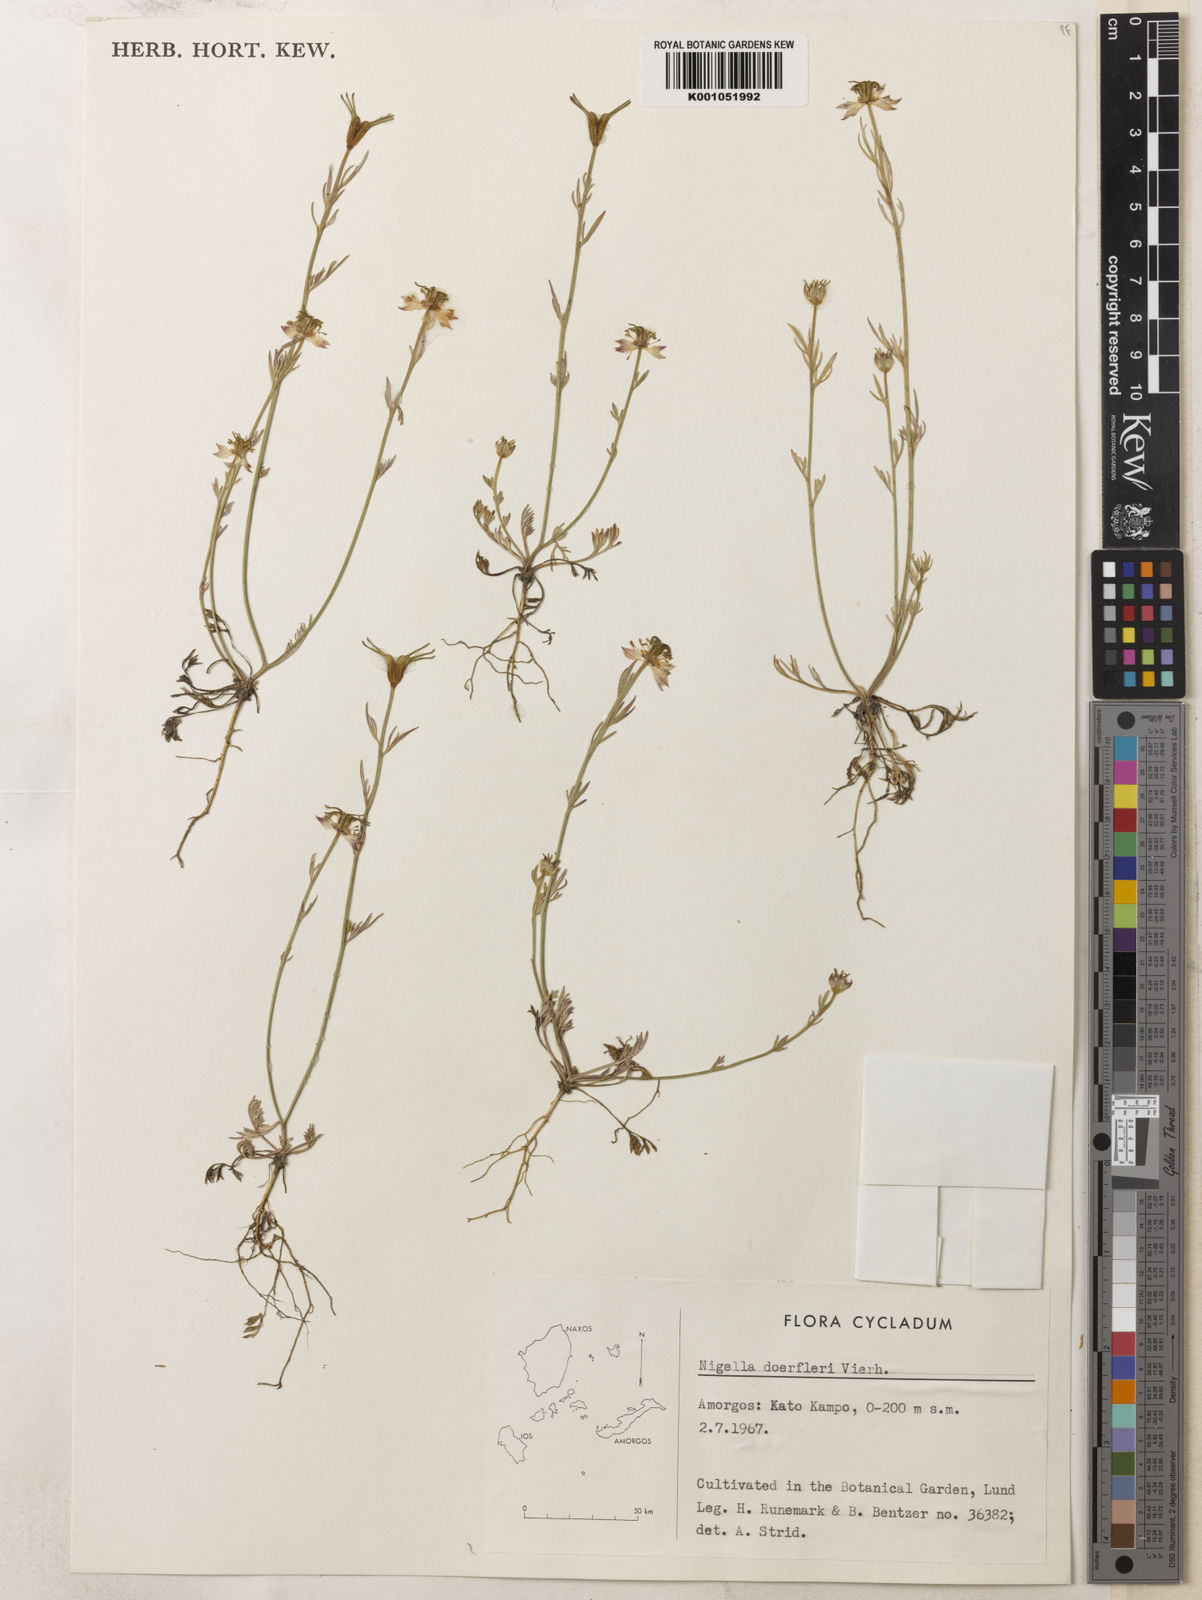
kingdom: Plantae
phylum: Tracheophyta
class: Magnoliopsida
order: Ranunculales
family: Ranunculaceae
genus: Nigella
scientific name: Nigella arvensis
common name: Wild fennel-flower
